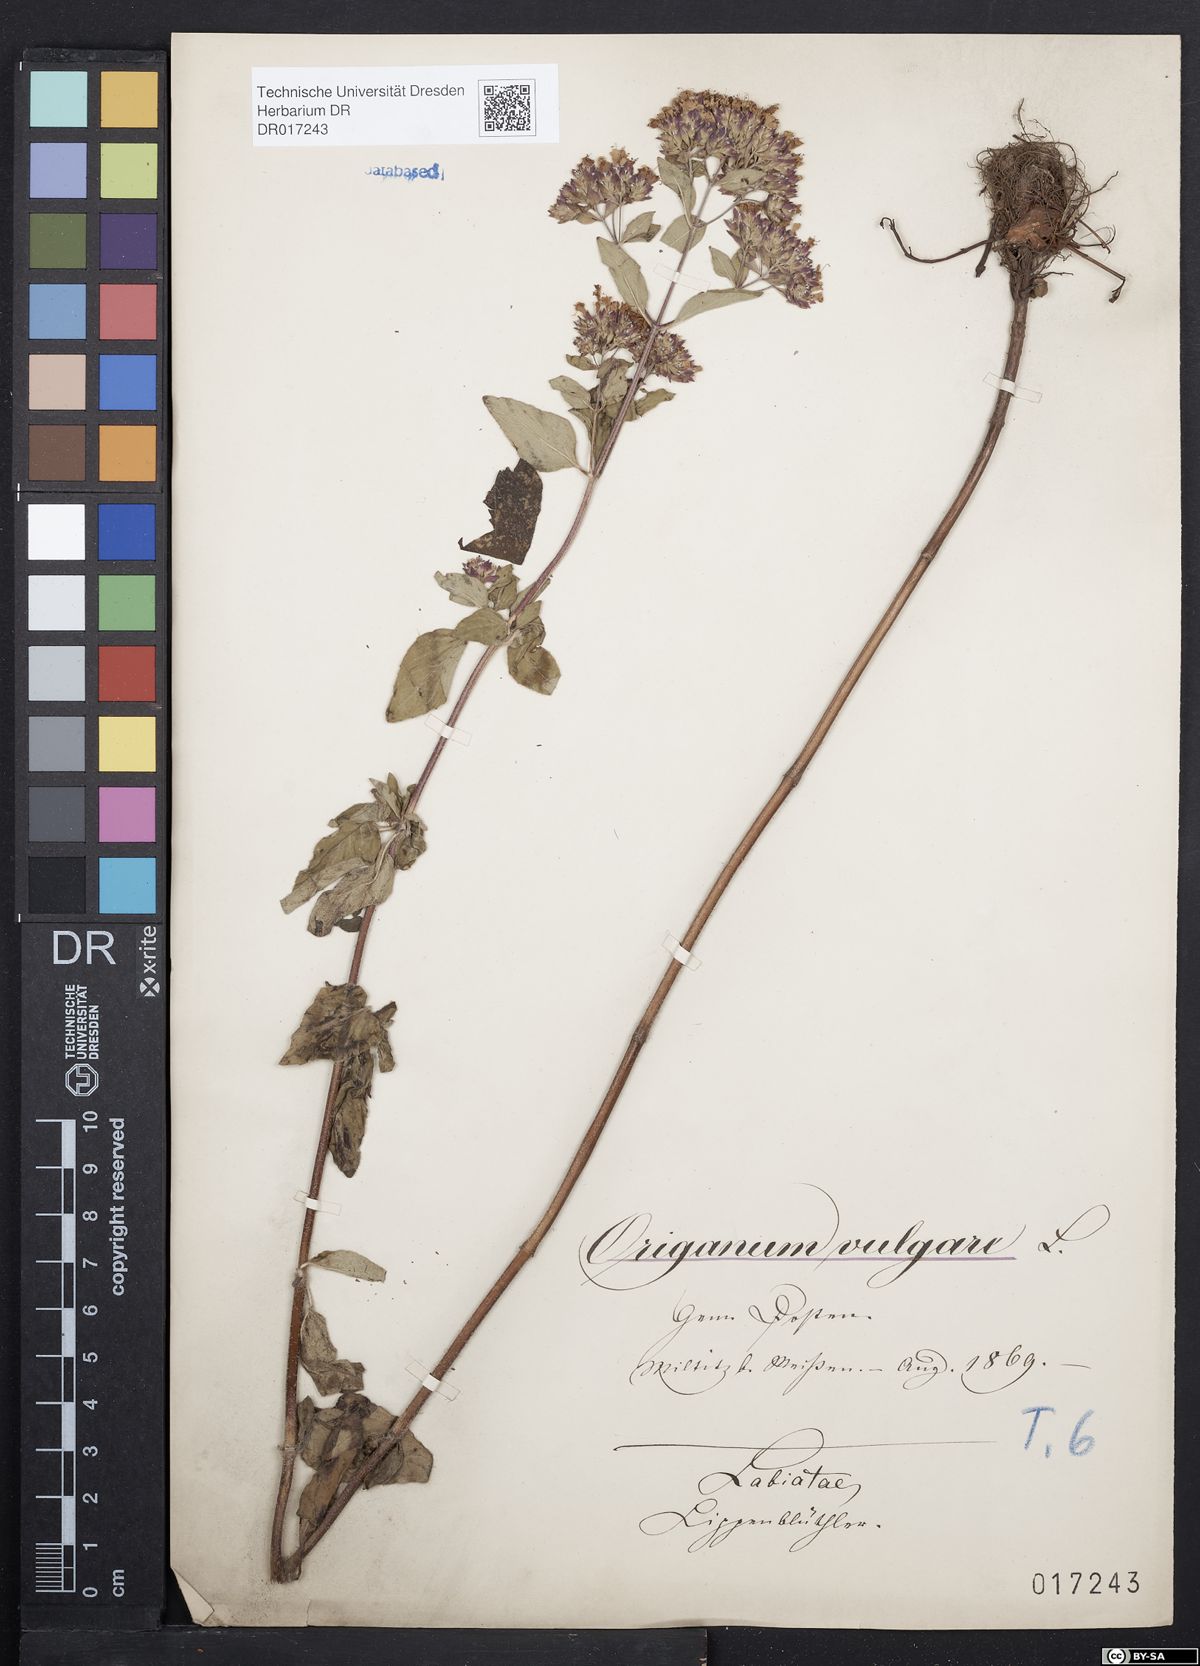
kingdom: Plantae
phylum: Tracheophyta
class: Magnoliopsida
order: Lamiales
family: Lamiaceae
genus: Origanum
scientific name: Origanum vulgare
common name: Wild marjoram
